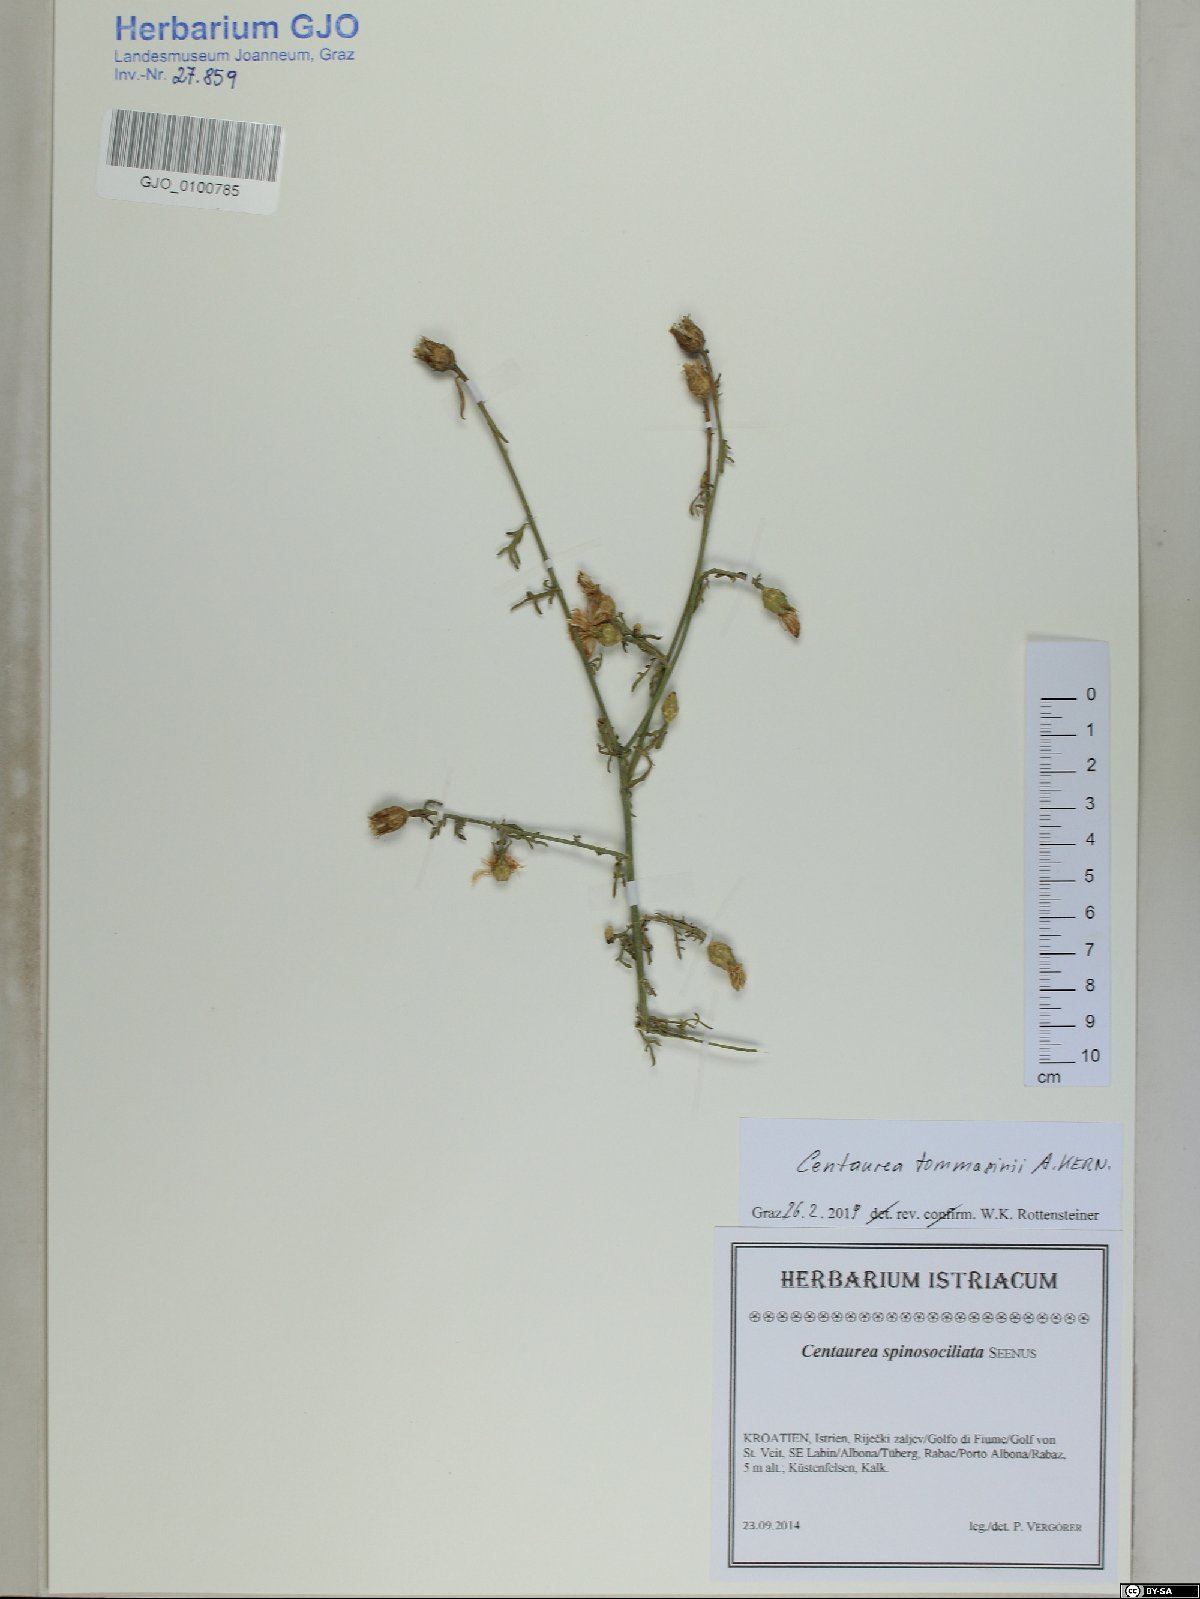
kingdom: Plantae
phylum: Tracheophyta
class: Magnoliopsida
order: Asterales
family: Asteraceae
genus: Centaurea
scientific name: Centaurea tommasinii
